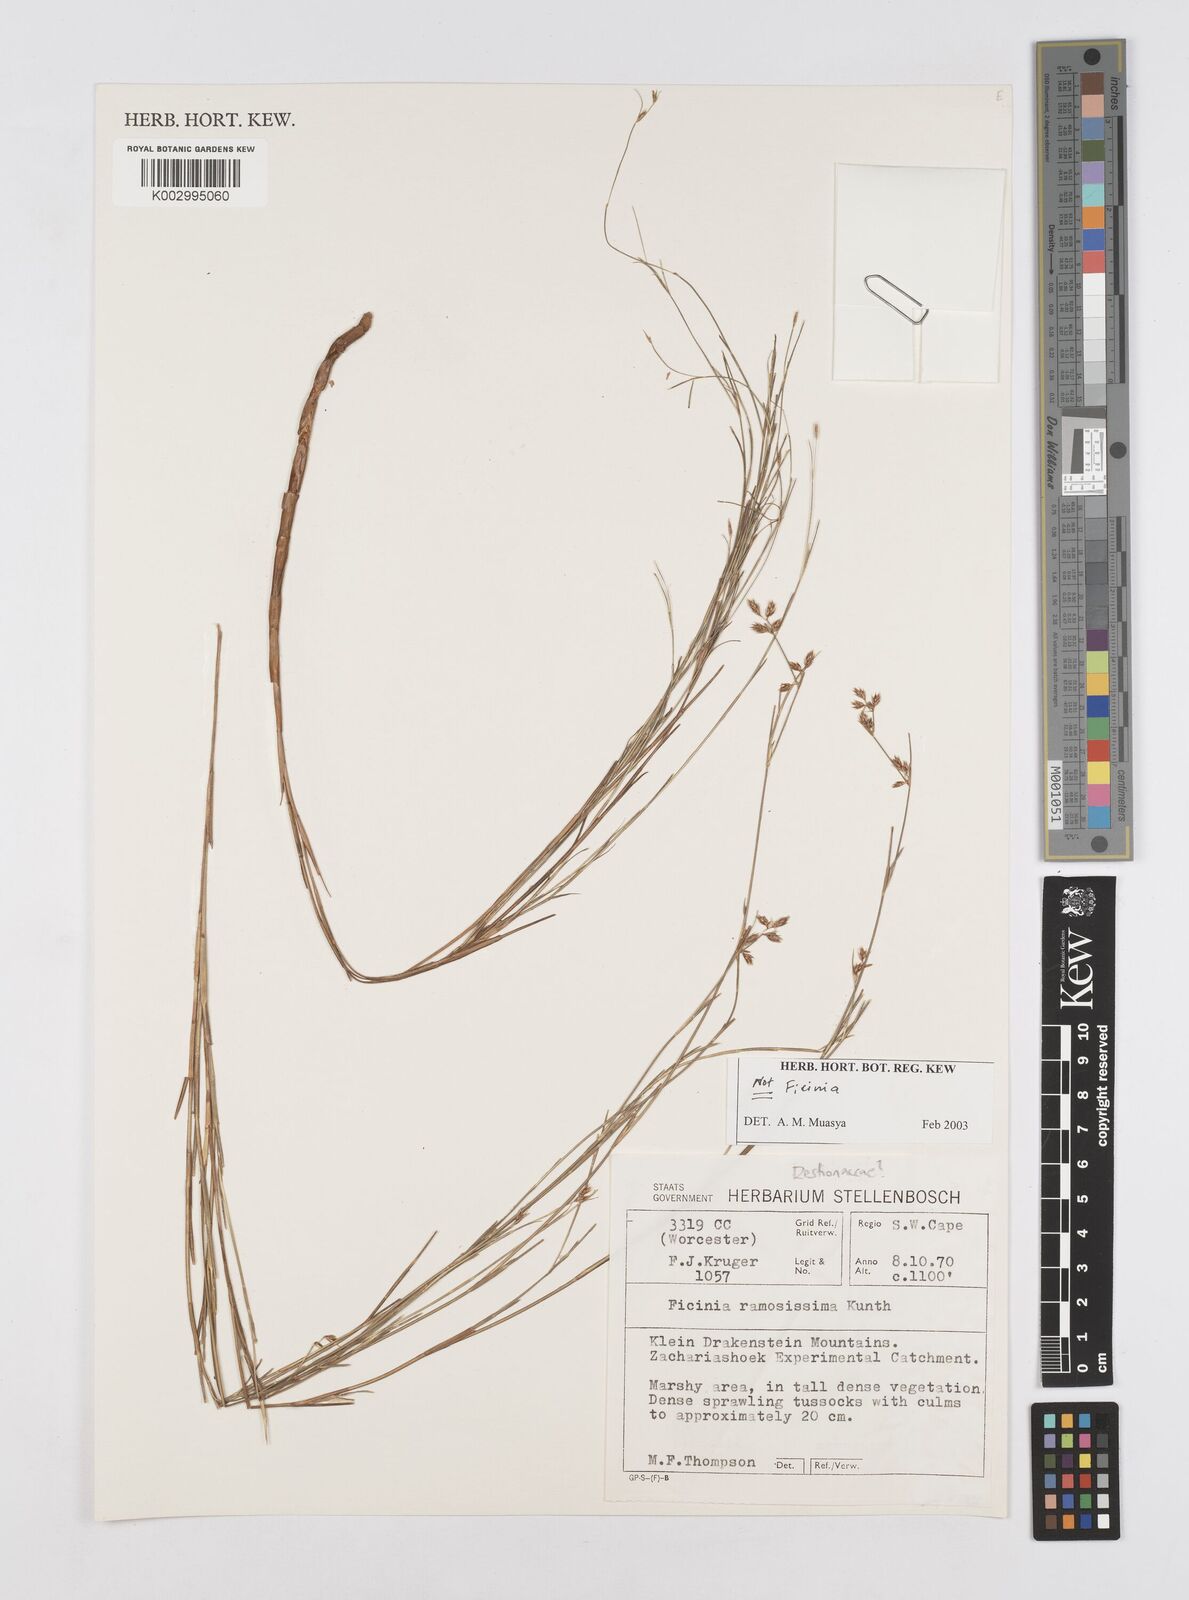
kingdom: Plantae
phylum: Tracheophyta
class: Liliopsida
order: Poales
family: Restionaceae
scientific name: Restionaceae
